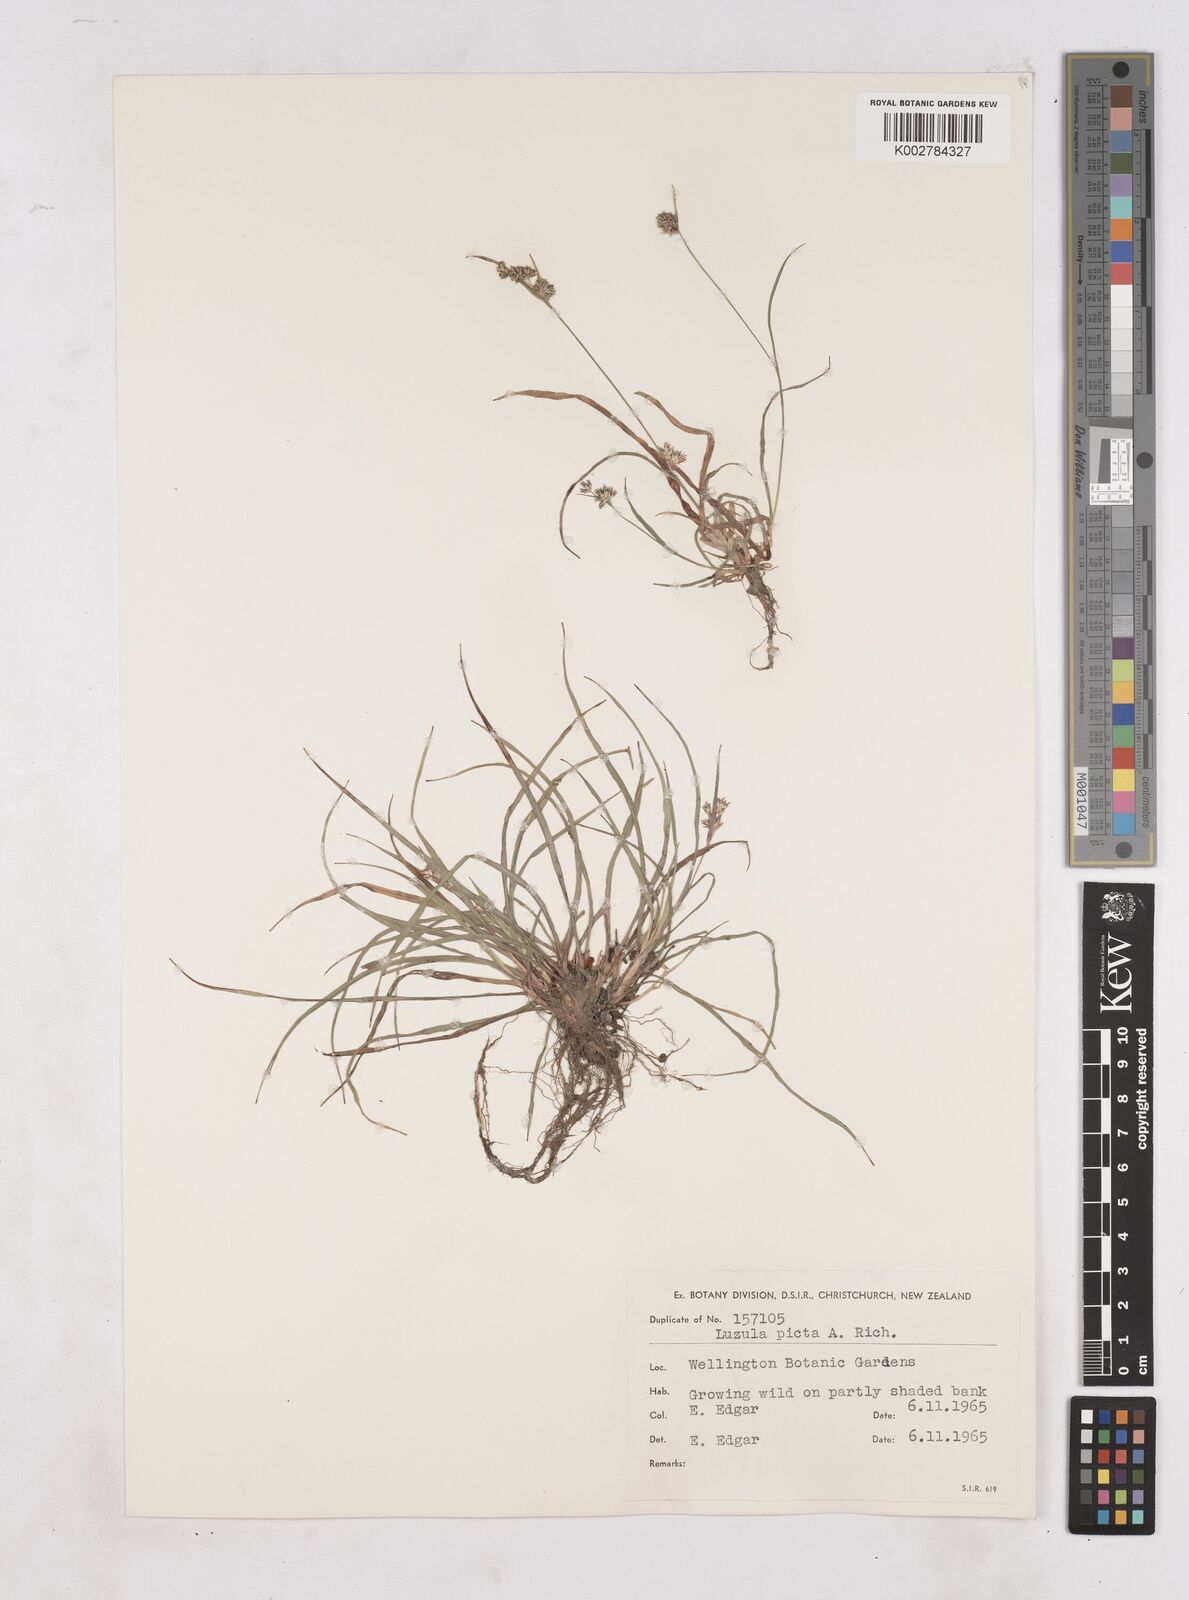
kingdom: Plantae
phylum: Tracheophyta
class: Liliopsida
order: Poales
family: Juncaceae
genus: Luzula
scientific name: Luzula picta
